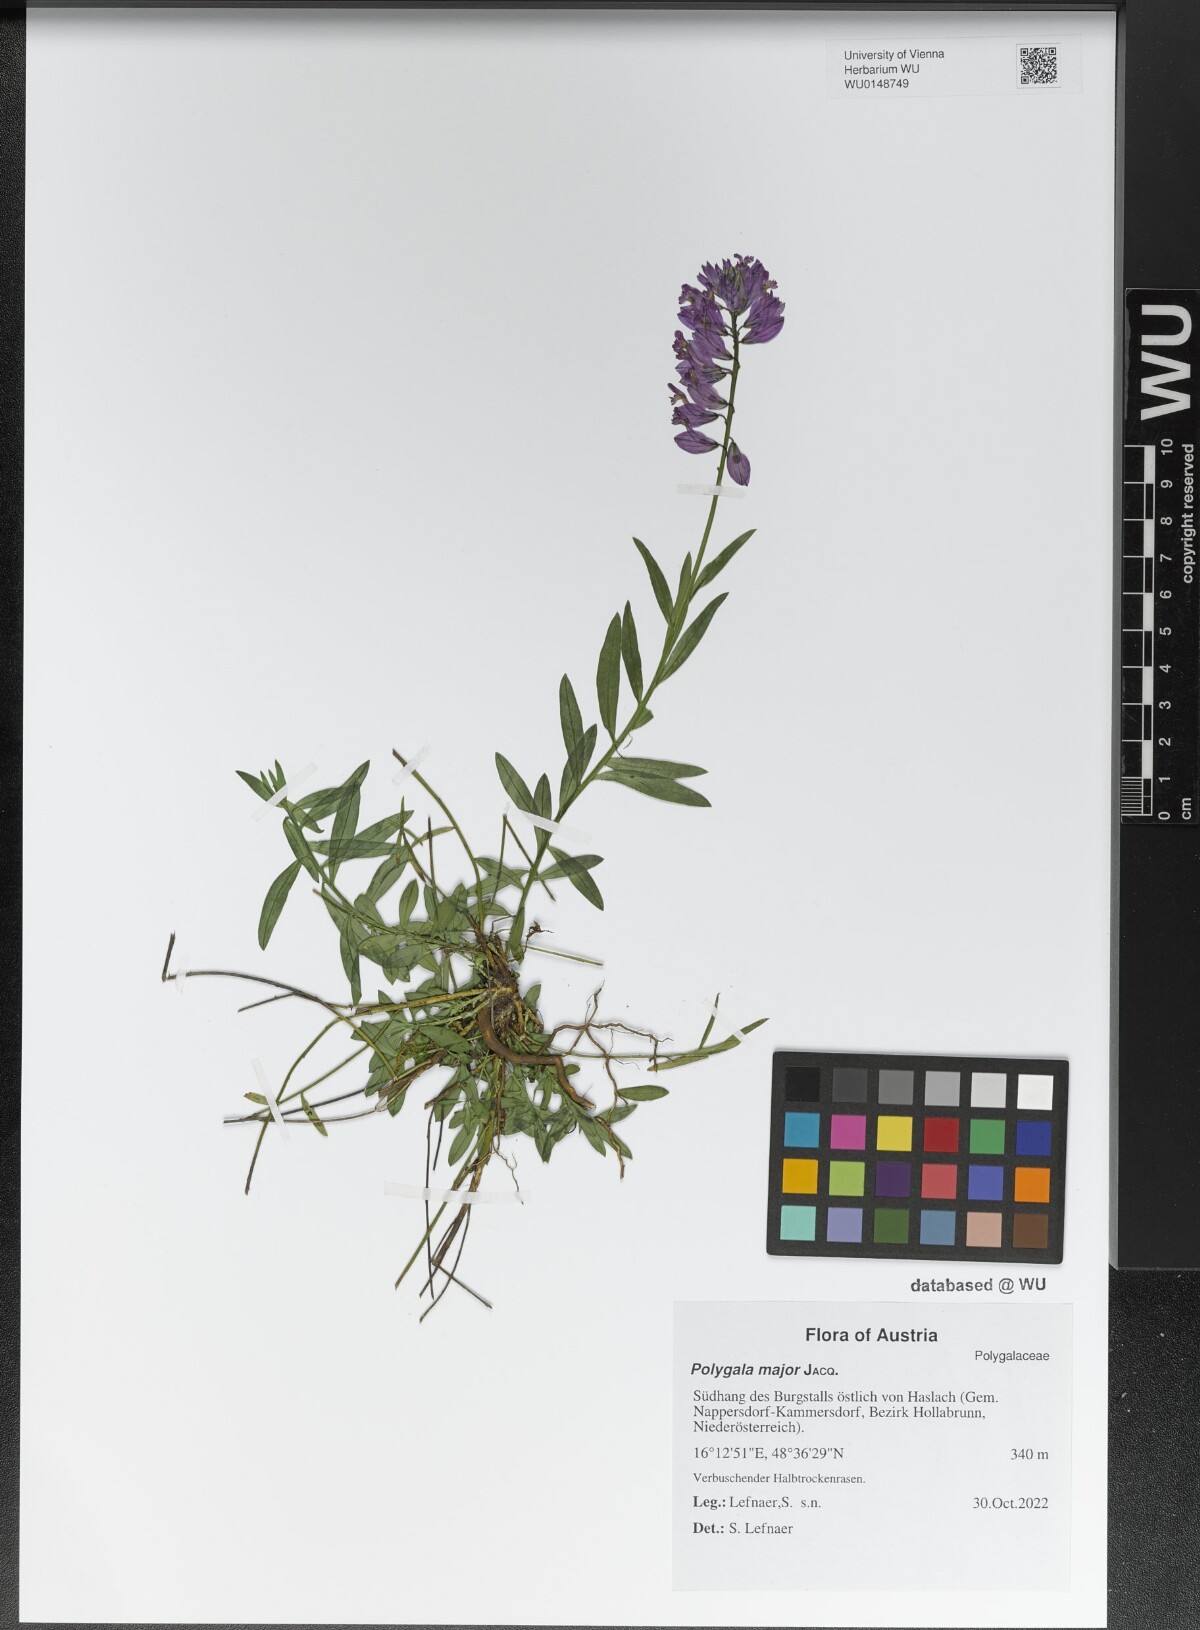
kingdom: Plantae
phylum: Tracheophyta
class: Magnoliopsida
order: Fabales
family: Polygalaceae
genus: Polygala
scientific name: Polygala major
